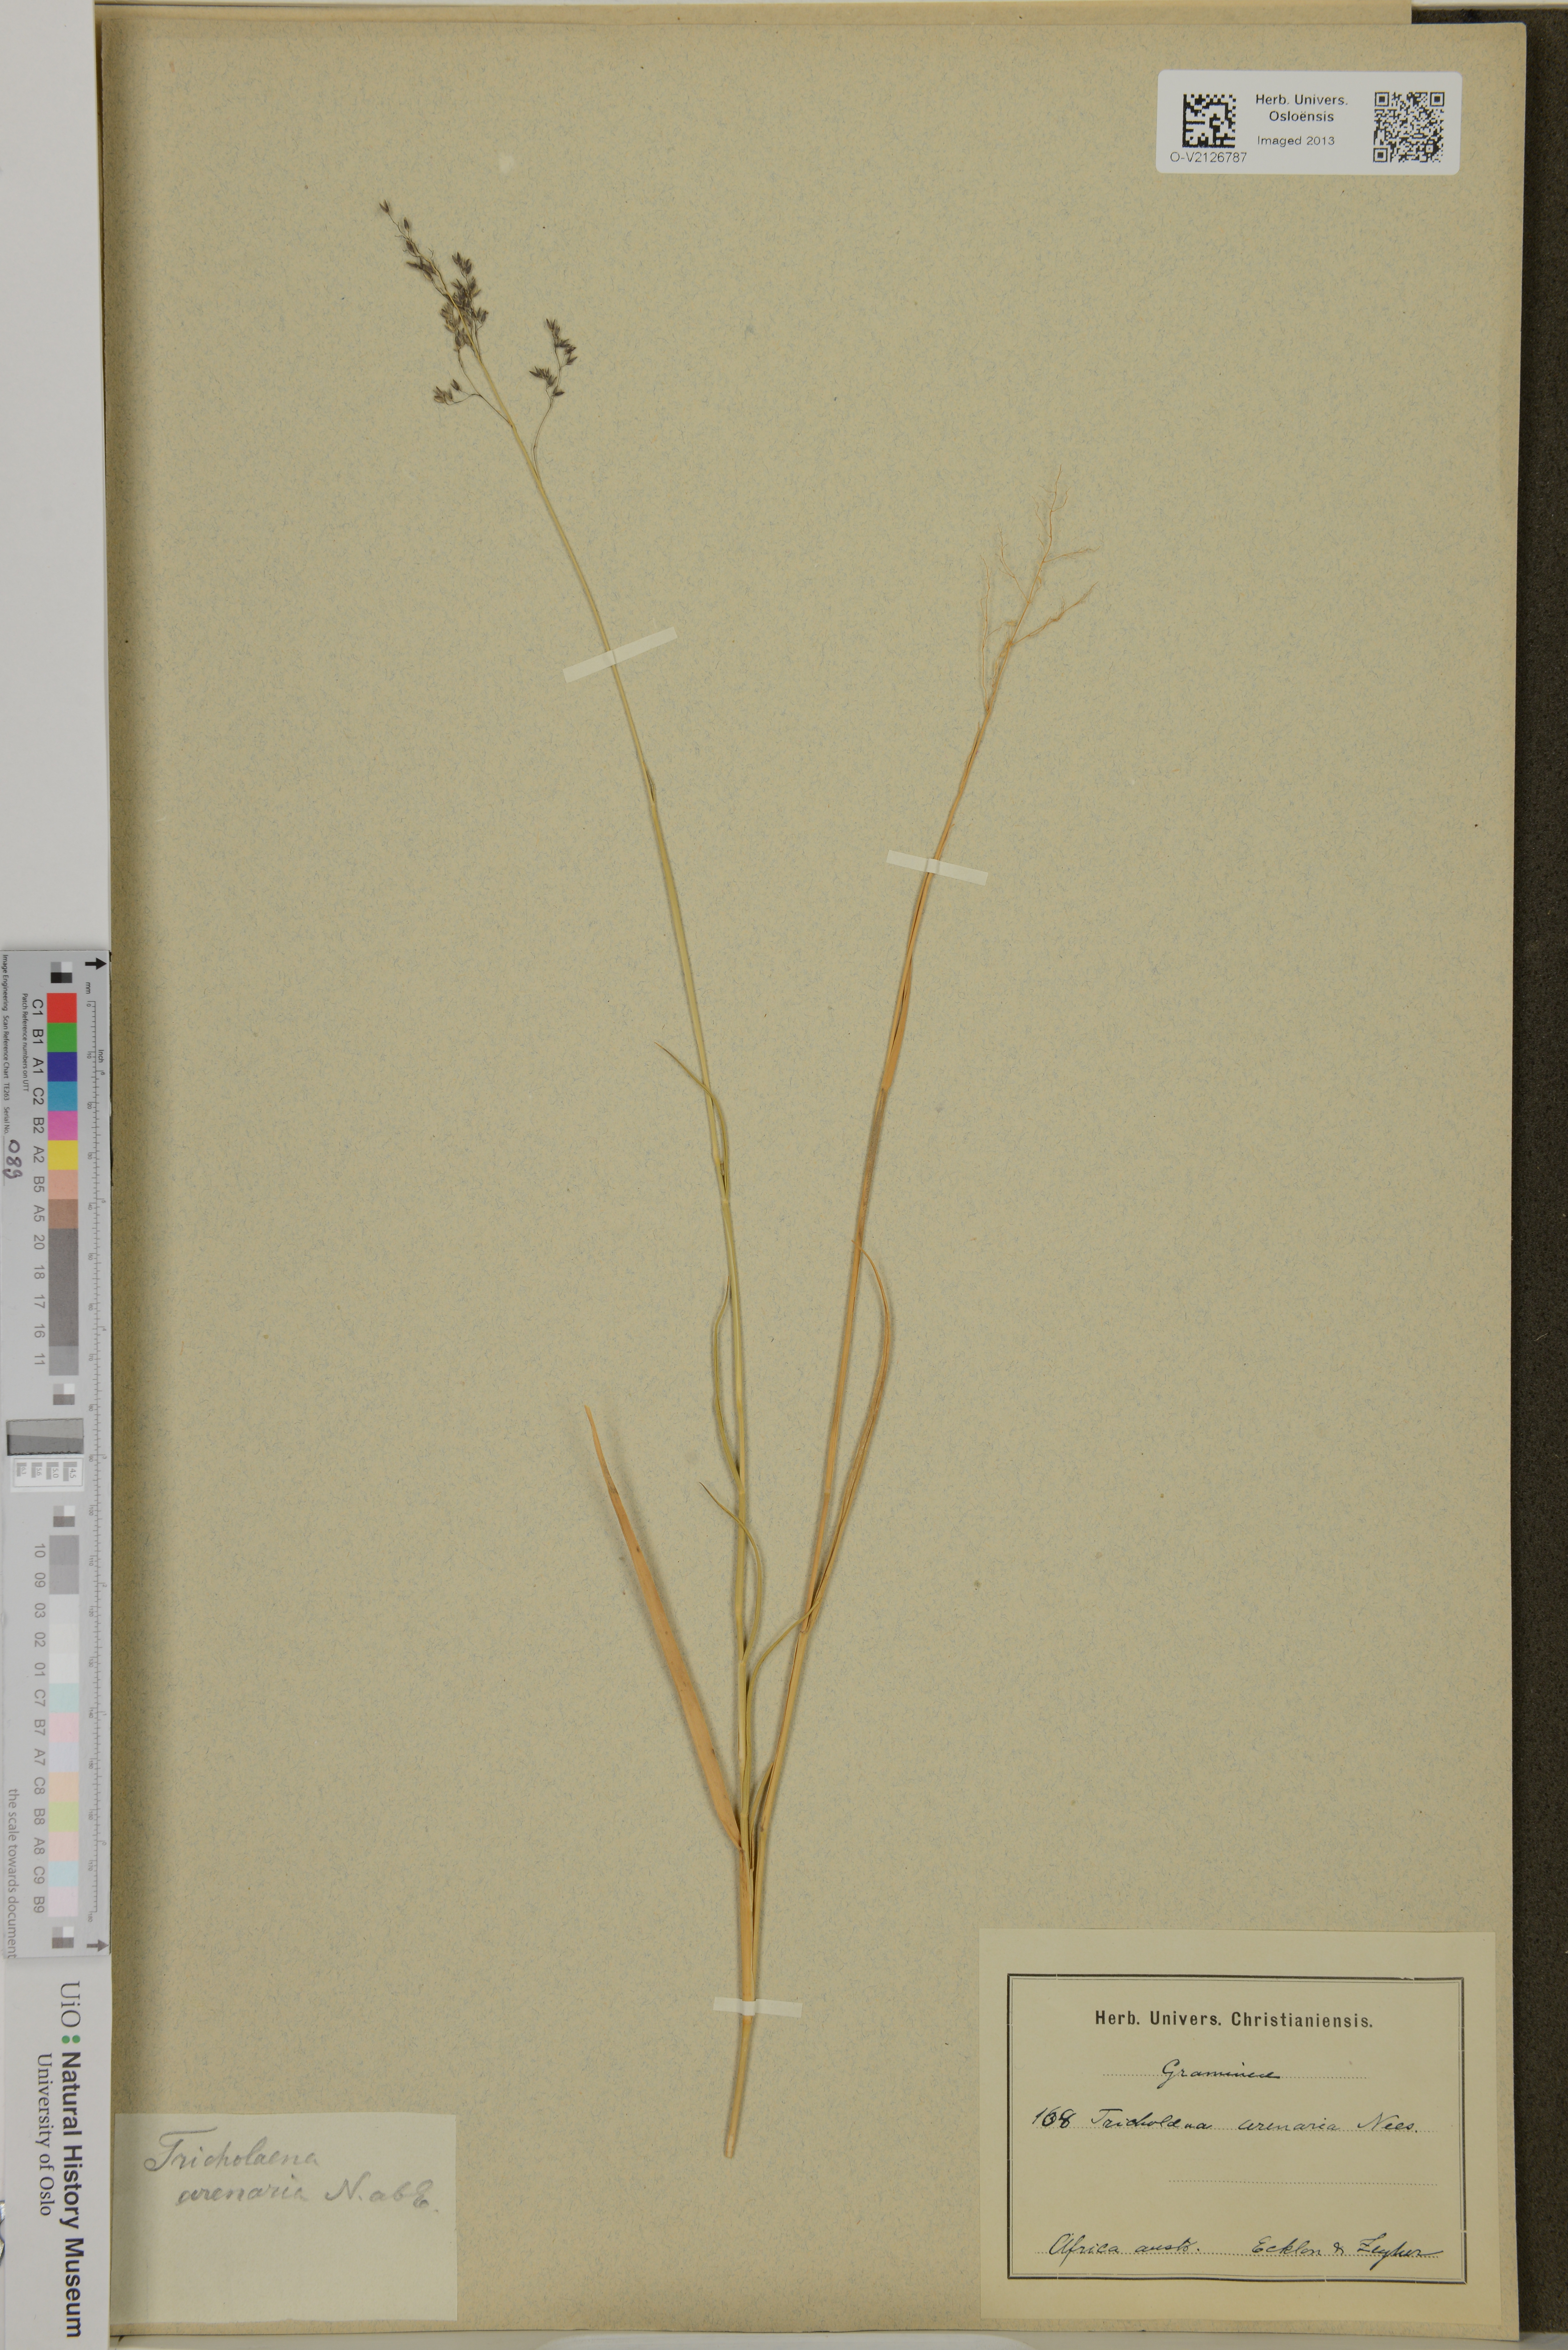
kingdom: Plantae
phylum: Tracheophyta
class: Liliopsida
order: Poales
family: Poaceae
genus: Tricholaena
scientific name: Tricholaena capensis
